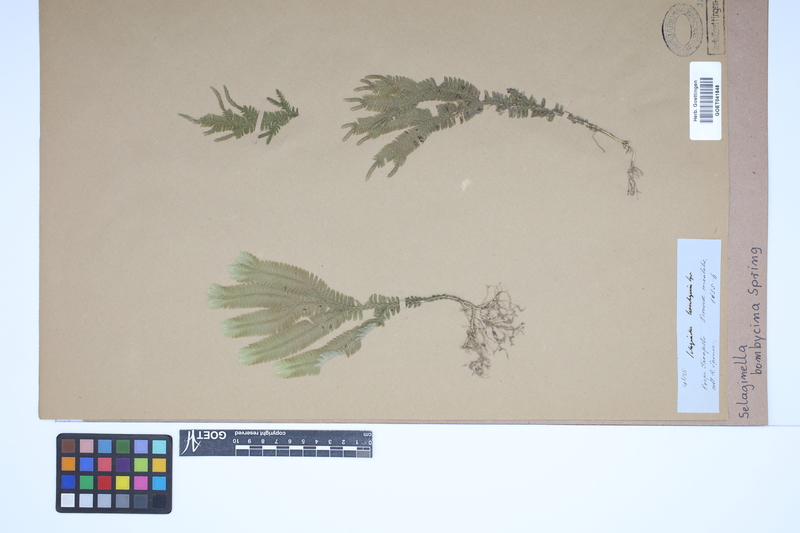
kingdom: Plantae
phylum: Tracheophyta
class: Lycopodiopsida
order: Selaginellales
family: Selaginellaceae
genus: Selaginella
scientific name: Selaginella bombycina
